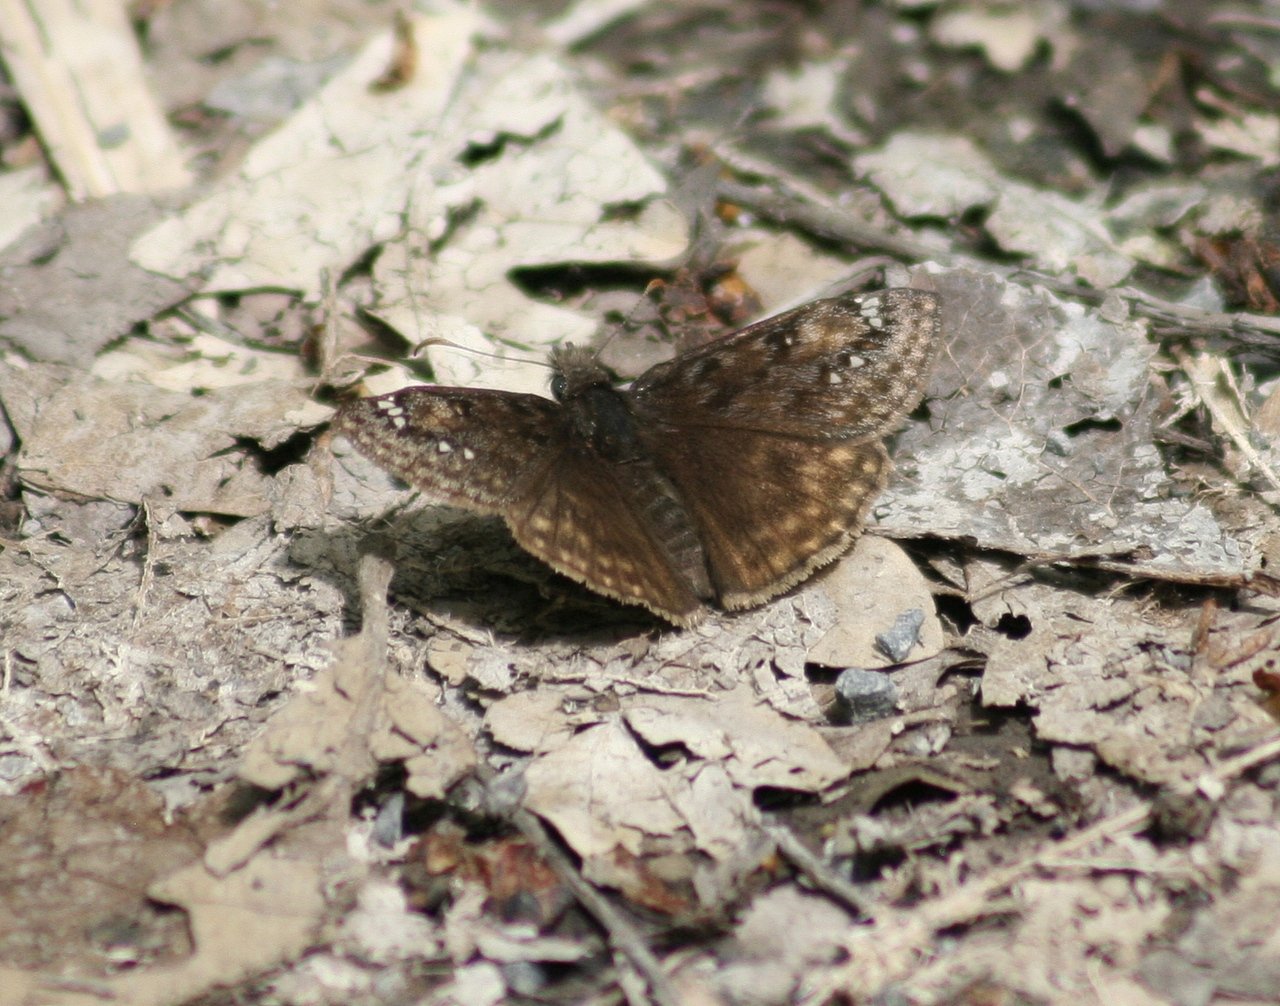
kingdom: Animalia
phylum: Arthropoda
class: Insecta
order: Lepidoptera
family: Hesperiidae
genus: Gesta
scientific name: Gesta
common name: Juvenal's Duskywing
